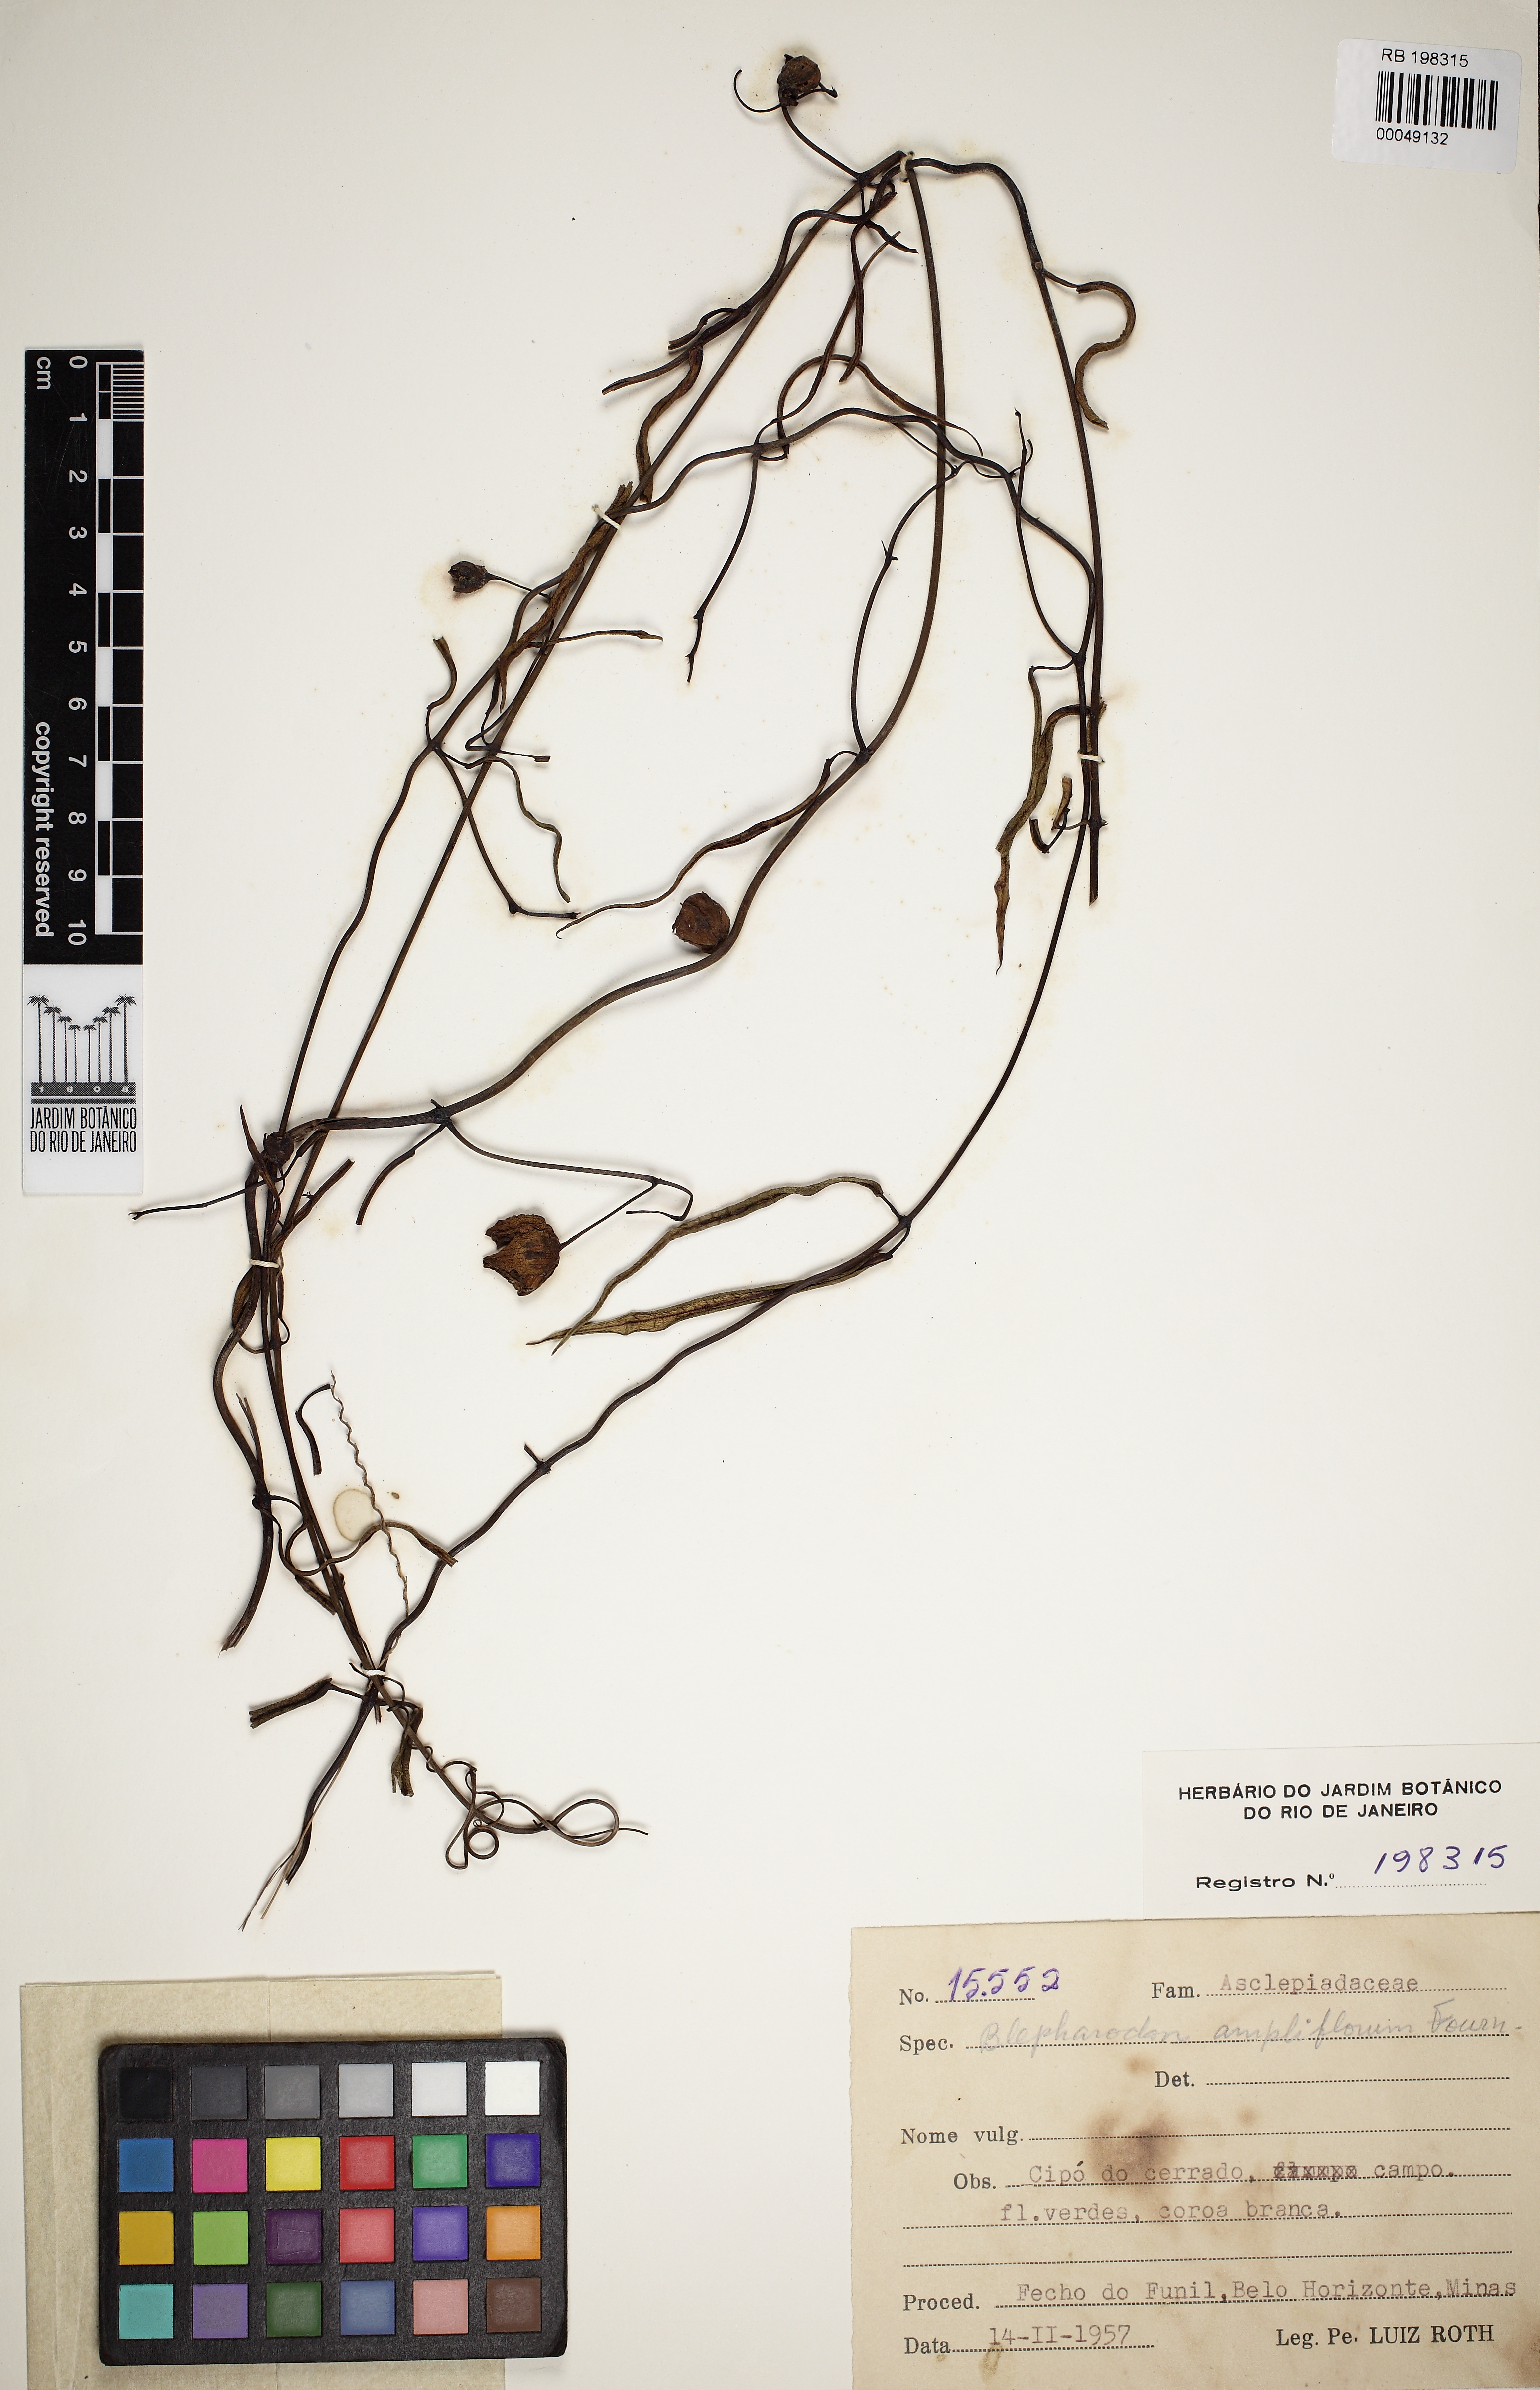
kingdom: Plantae
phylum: Tracheophyta
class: Magnoliopsida
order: Gentianales
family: Apocynaceae
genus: Blepharodon
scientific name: Blepharodon ampliflorum
